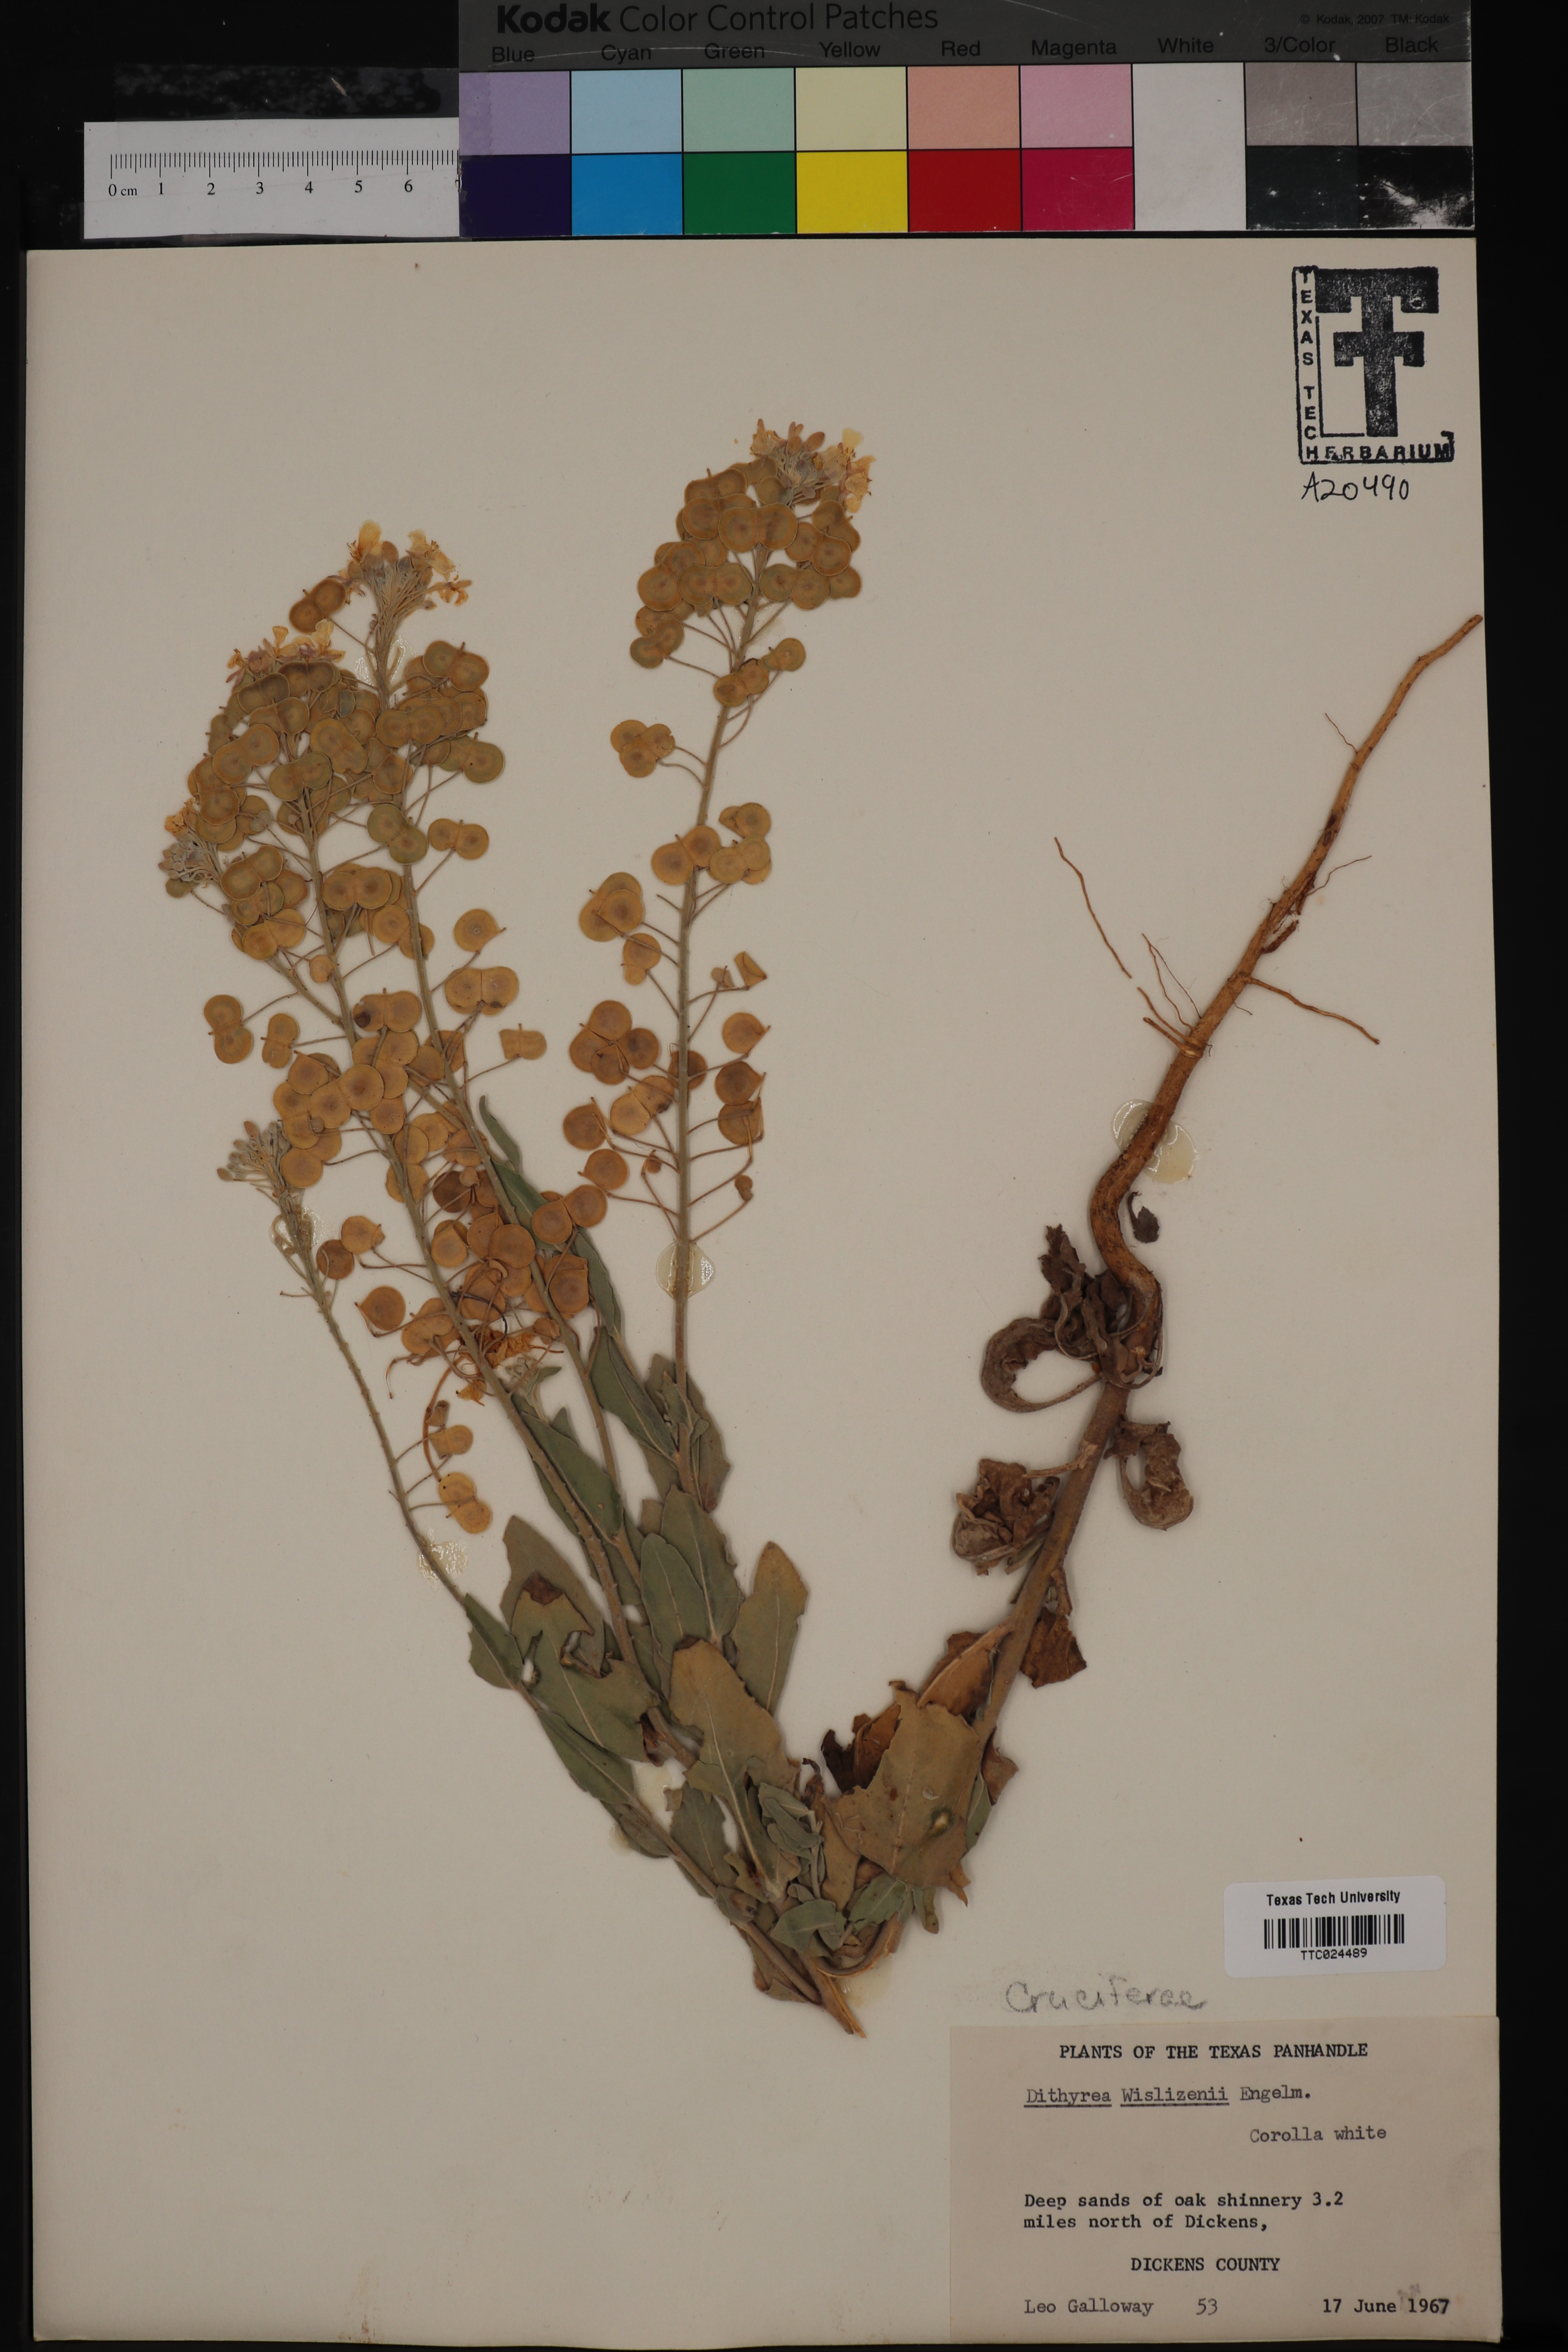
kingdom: Plantae
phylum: Tracheophyta
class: Magnoliopsida
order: Brassicales
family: Brassicaceae
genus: Dimorphocarpa
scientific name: Dimorphocarpa wislizenii
